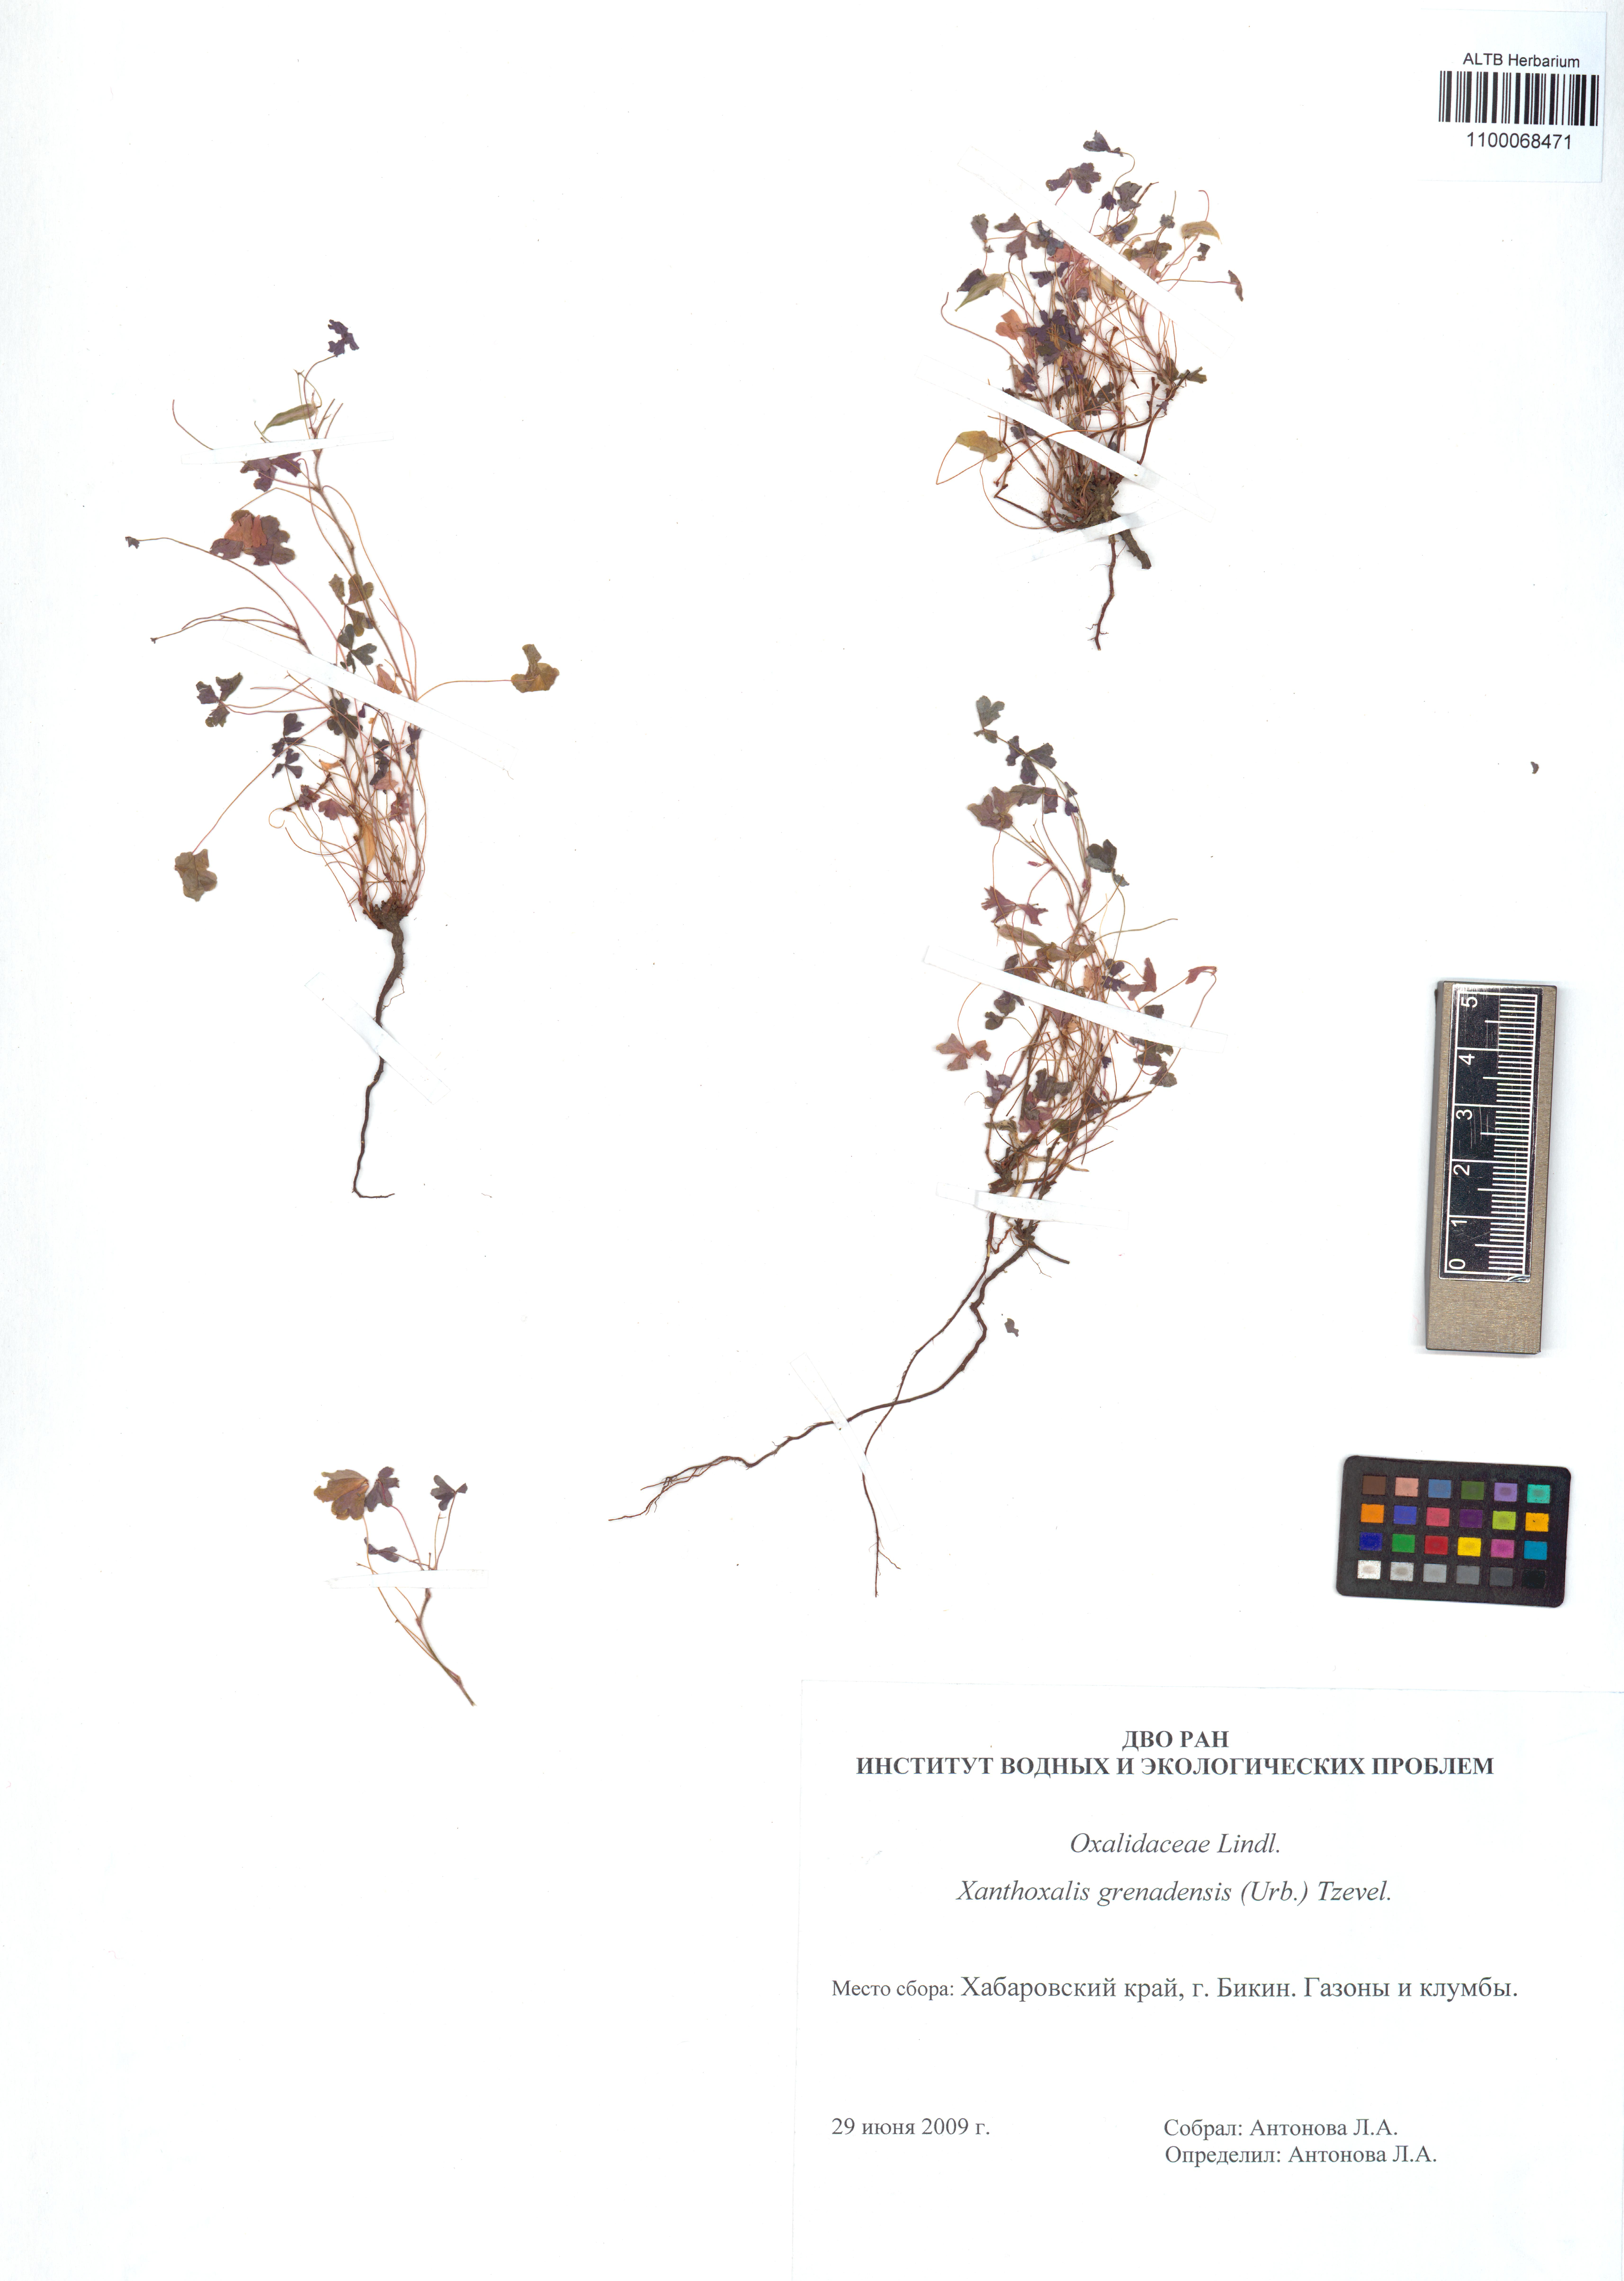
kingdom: Plantae
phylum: Tracheophyta
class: Magnoliopsida
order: Oxalidales
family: Oxalidaceae
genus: Oxalis
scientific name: Oxalis corniculata
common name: Procumbent yellow-sorrel
